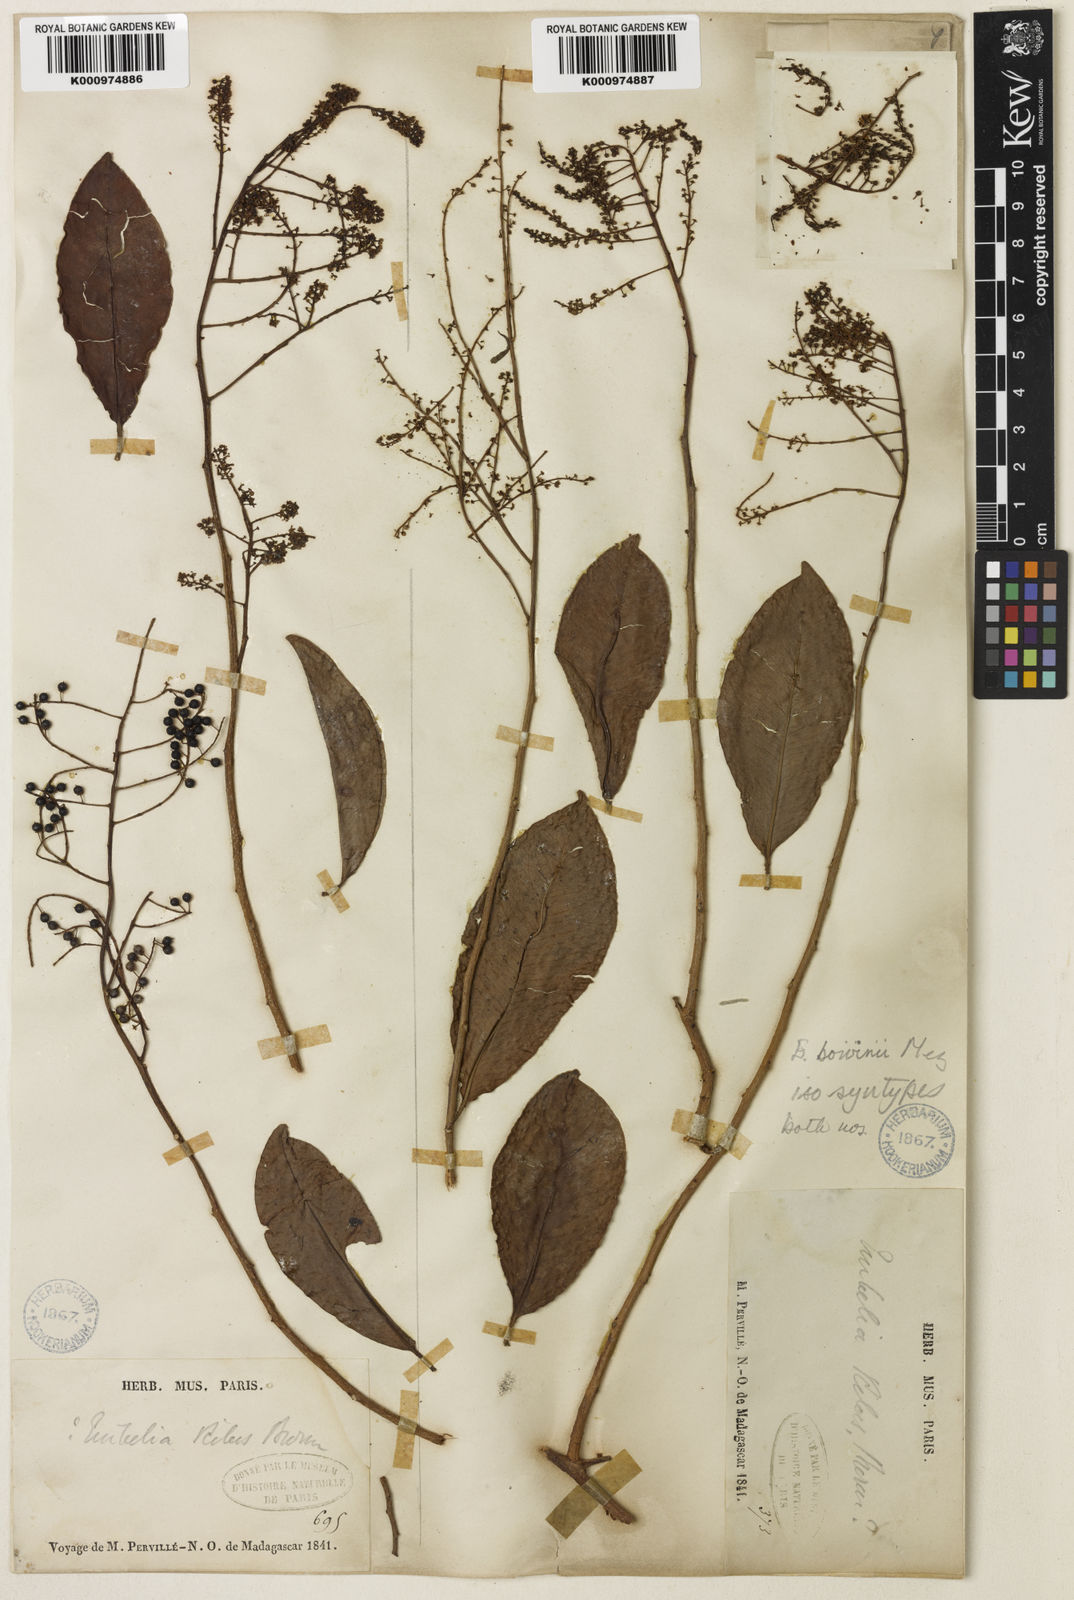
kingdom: Plantae
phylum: Tracheophyta
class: Magnoliopsida
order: Ericales
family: Primulaceae
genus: Embelia
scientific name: Embelia boivinii
